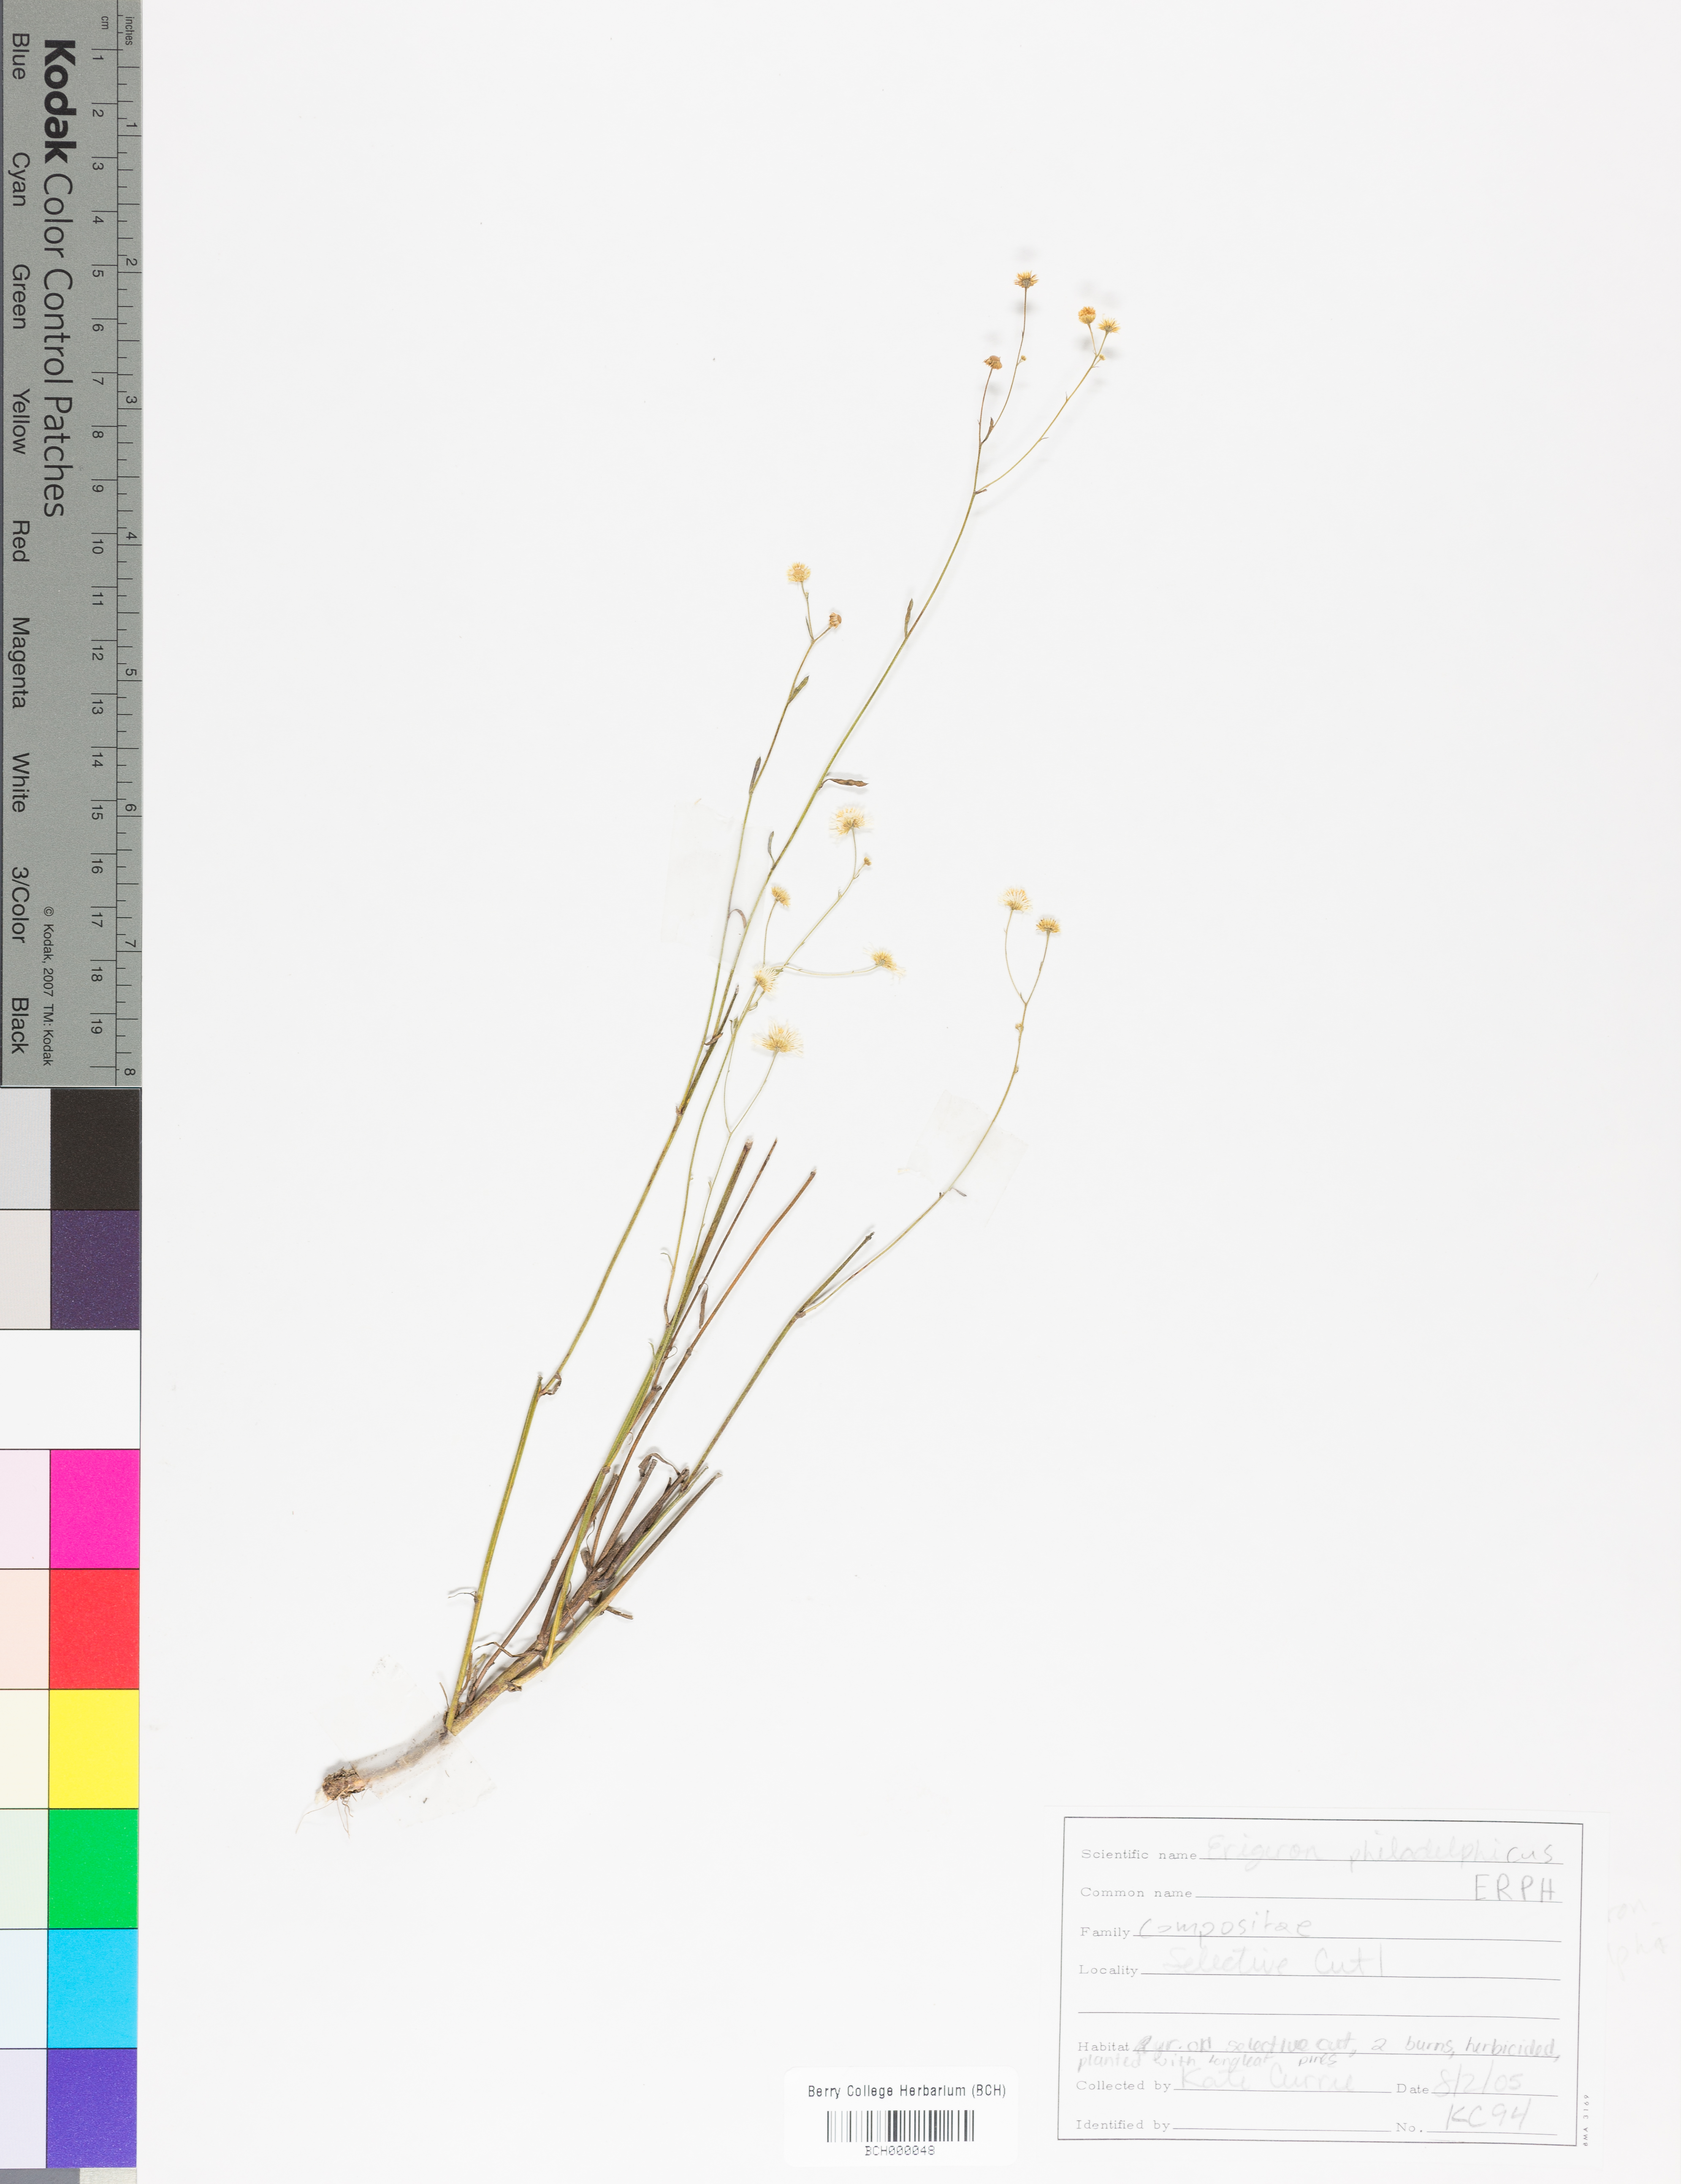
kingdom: Plantae
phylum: Tracheophyta
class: Magnoliopsida
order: Asterales
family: Asteraceae
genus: Erigeron
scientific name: Erigeron philadelphicus
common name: Robin's-plantain
